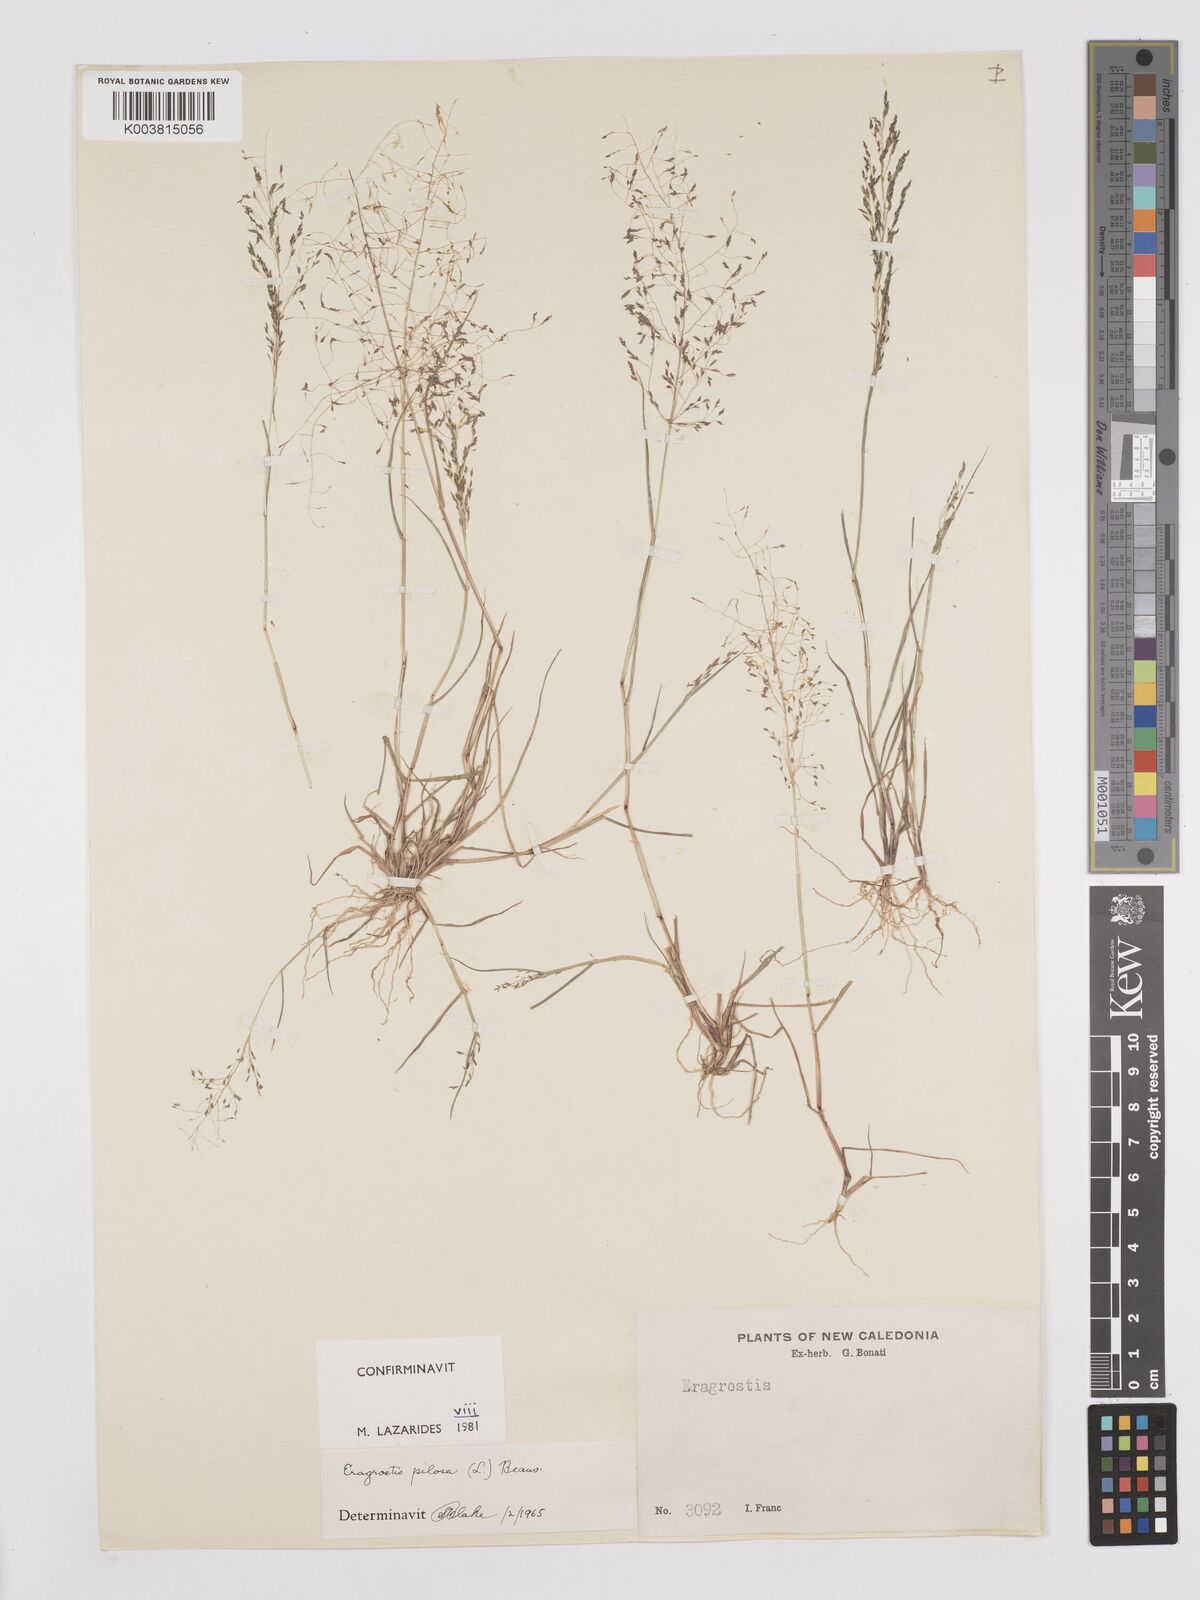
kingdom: Plantae
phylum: Tracheophyta
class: Liliopsida
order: Poales
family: Poaceae
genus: Eragrostis
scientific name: Eragrostis pilosa
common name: Indian lovegrass
